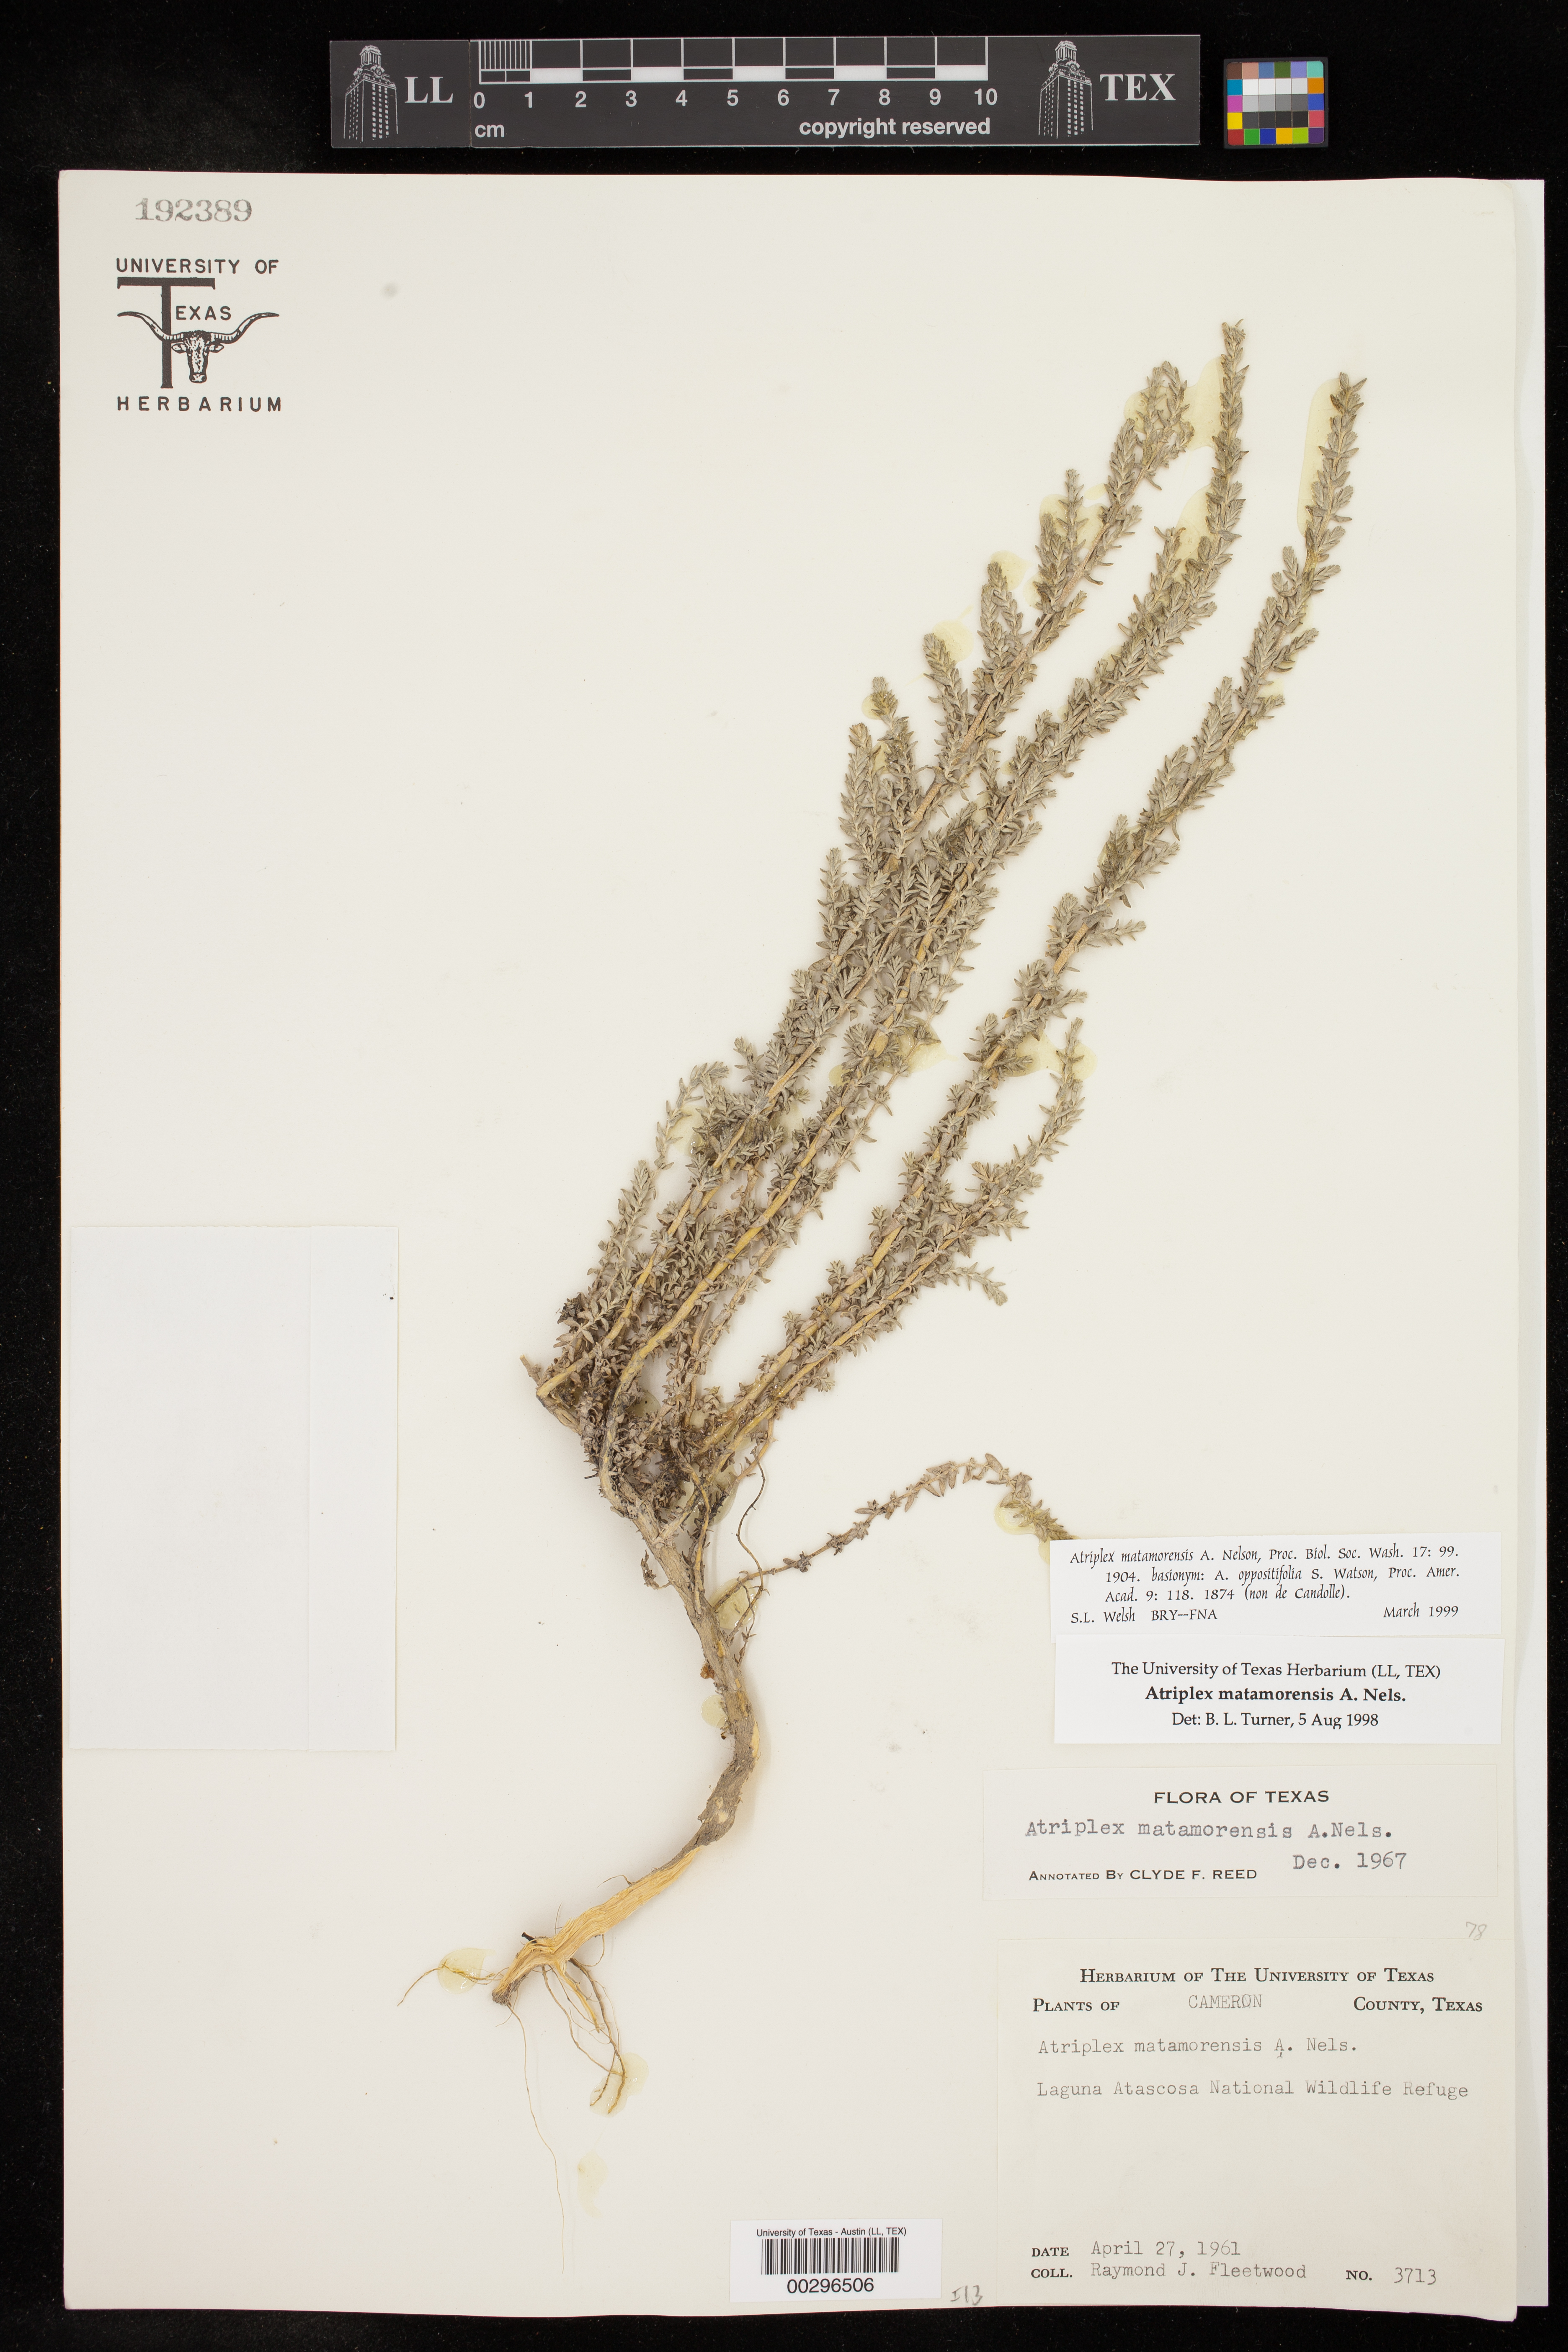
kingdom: Plantae
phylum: Tracheophyta
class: Magnoliopsida
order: Caryophyllales
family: Amaranthaceae
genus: Atriplex
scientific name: Atriplex matamorensis
